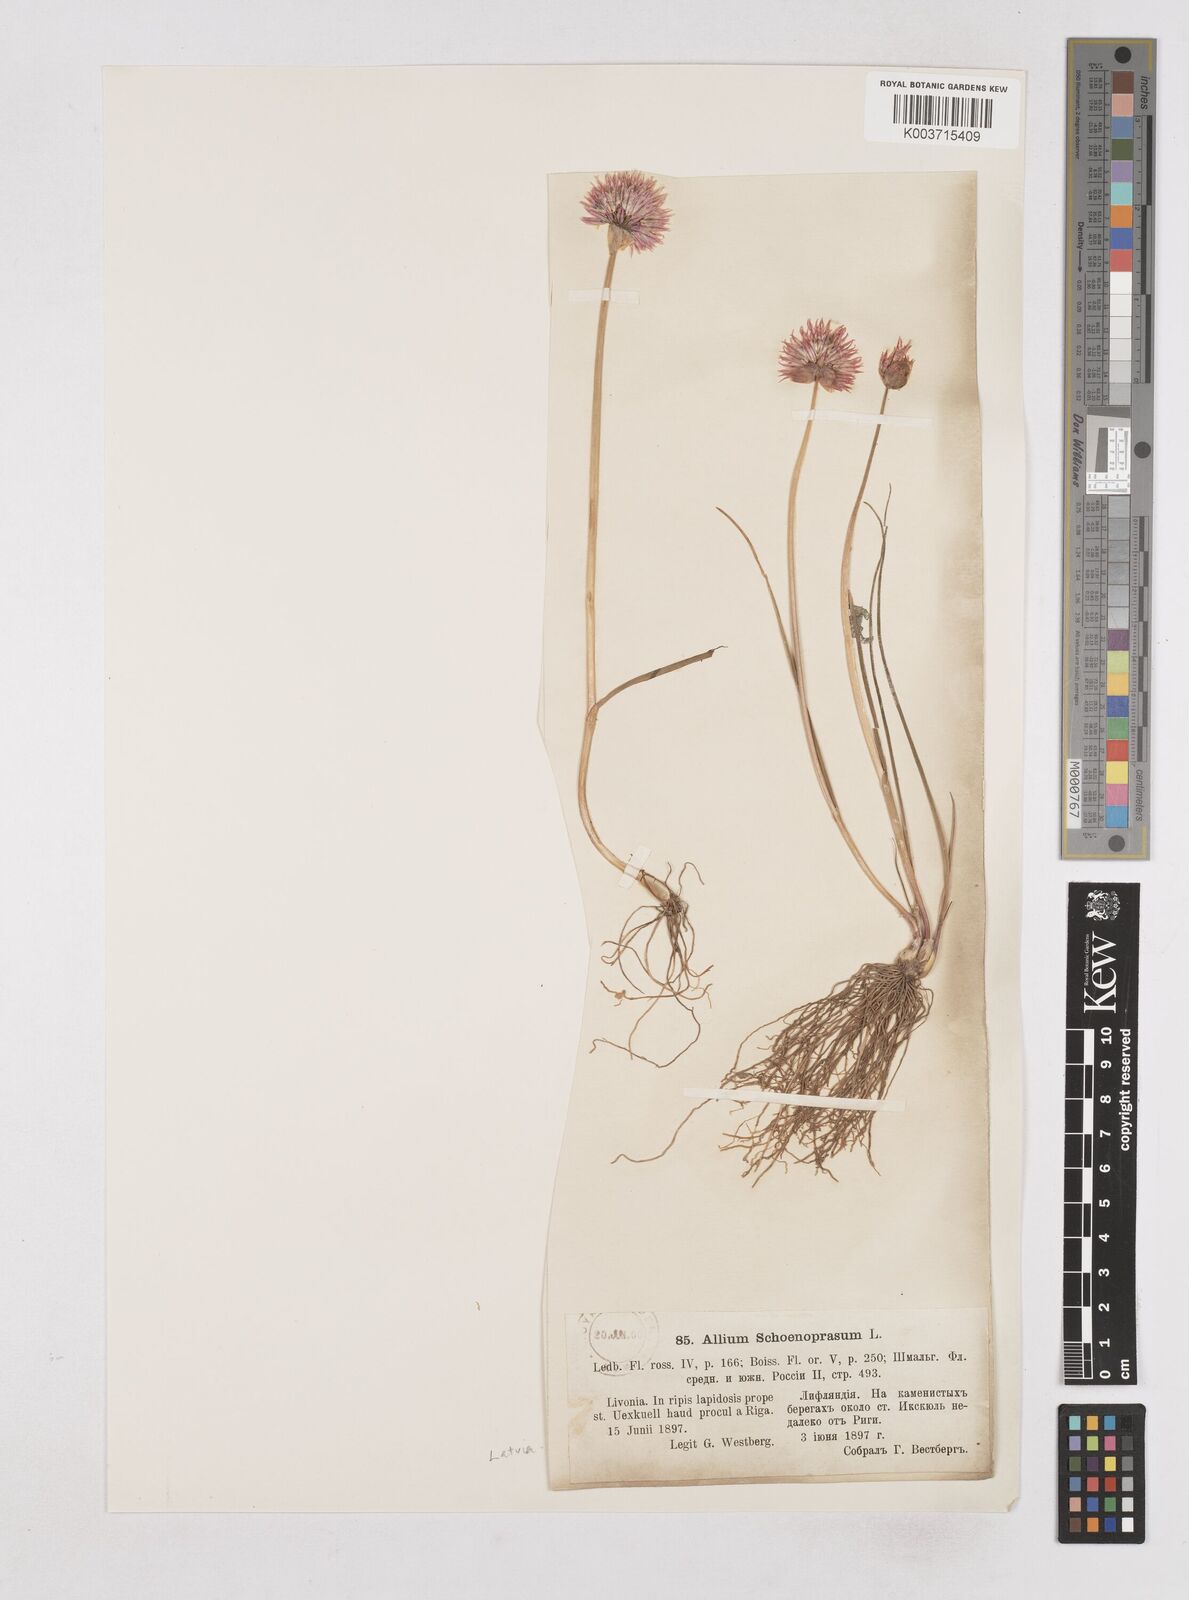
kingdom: Plantae
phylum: Tracheophyta
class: Liliopsida
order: Asparagales
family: Amaryllidaceae
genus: Allium
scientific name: Allium schoenoprasum
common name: Chives
